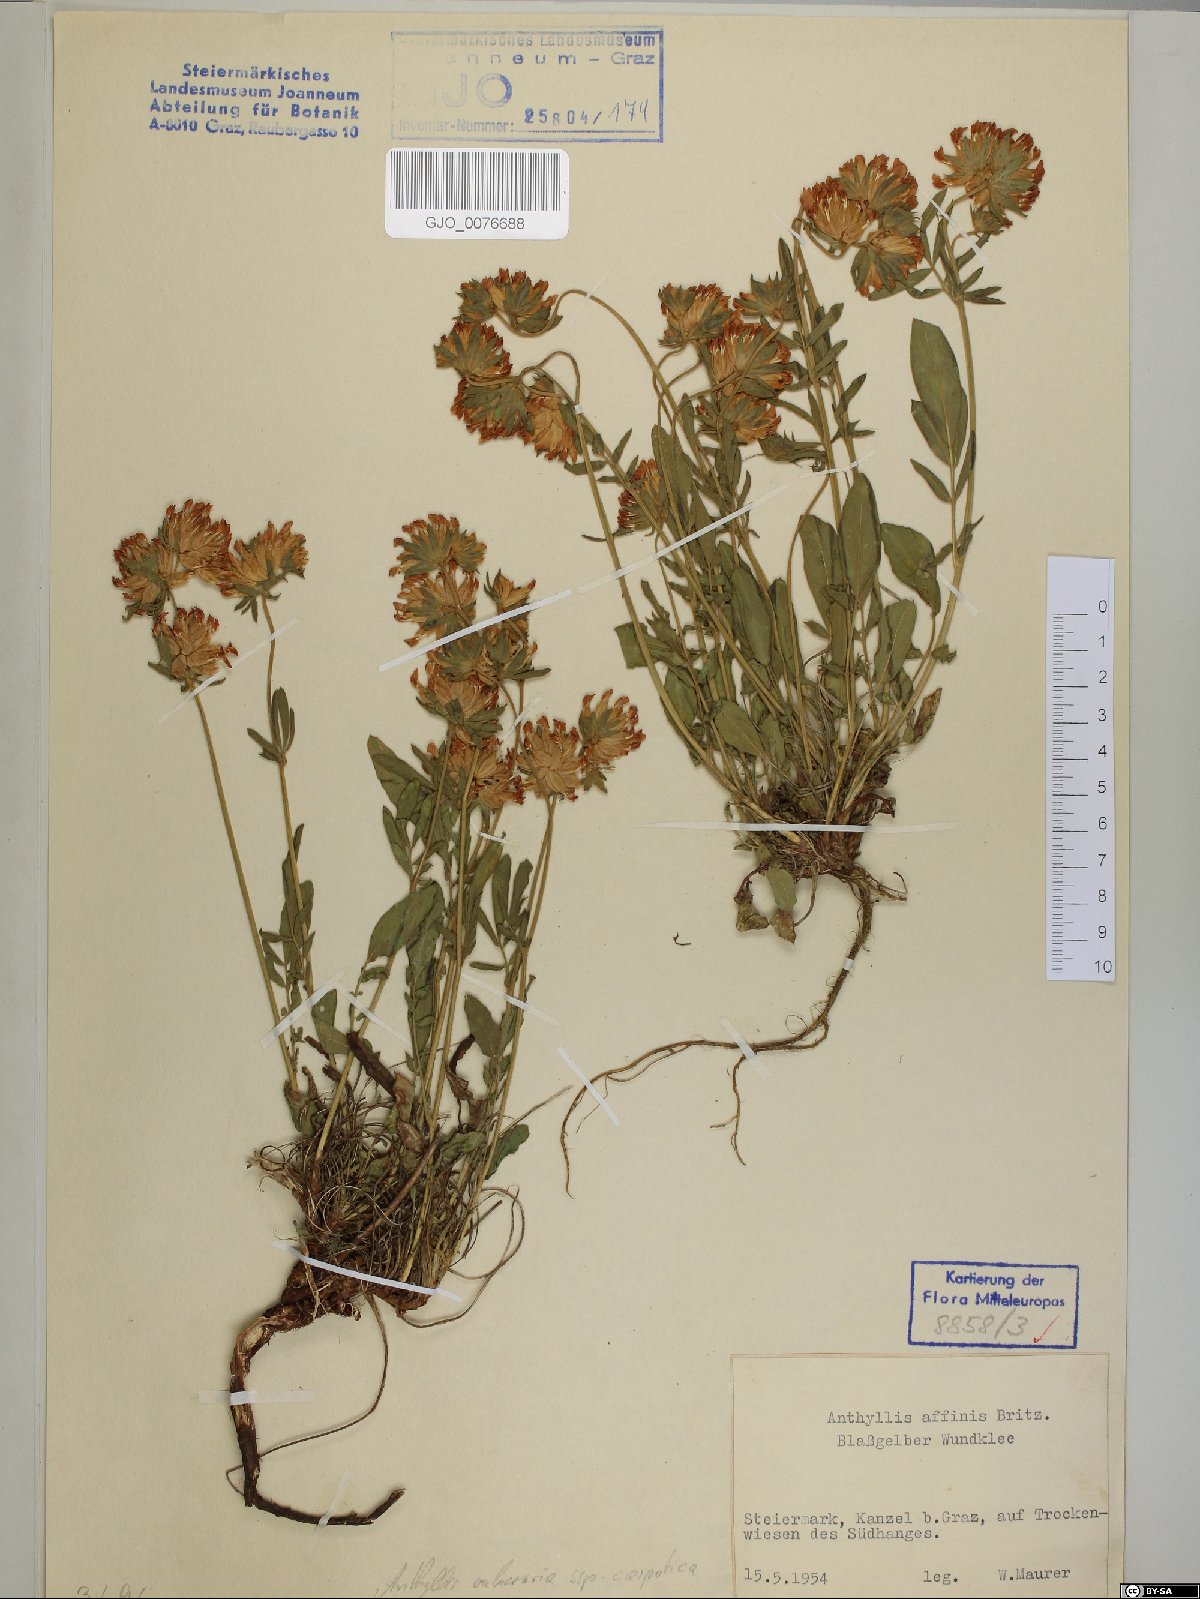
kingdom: Plantae
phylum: Tracheophyta
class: Magnoliopsida
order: Fabales
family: Fabaceae
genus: Anthyllis
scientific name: Anthyllis vulneraria
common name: Kidney vetch
